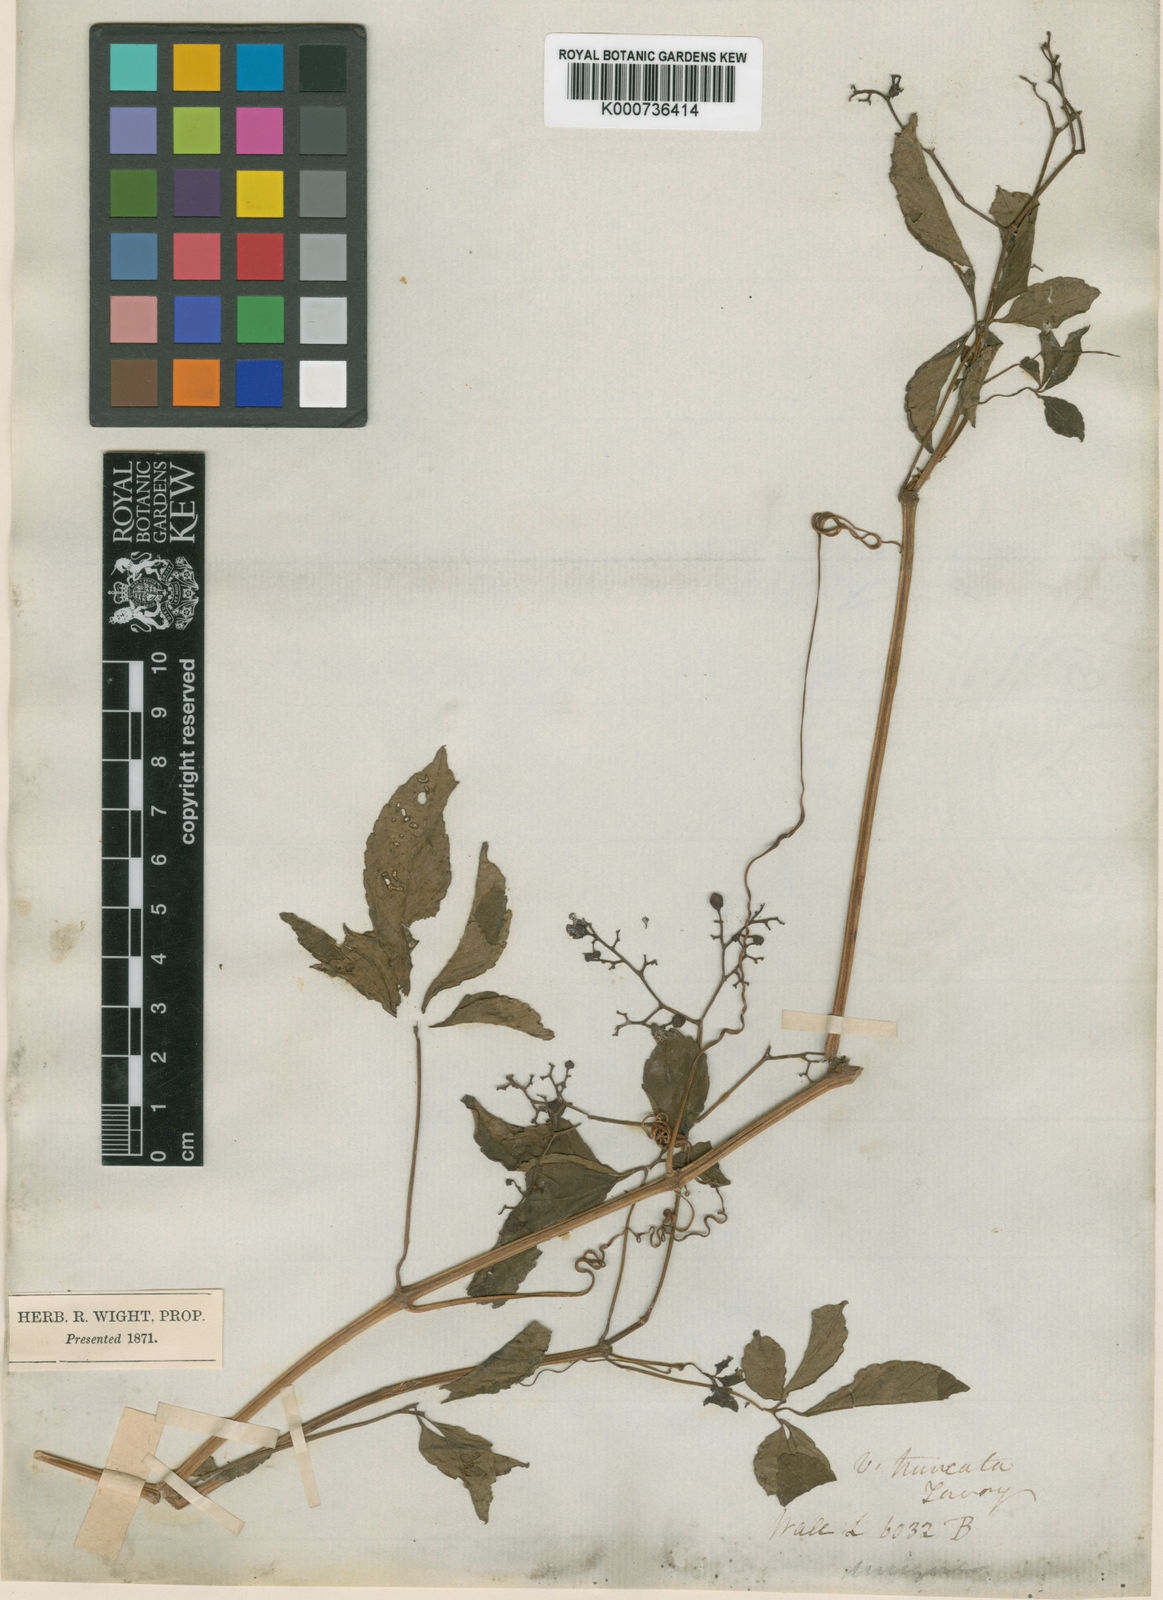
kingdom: Plantae
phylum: Tracheophyta
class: Magnoliopsida
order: Vitales
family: Vitaceae
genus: Cayratia
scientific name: Cayratia pedata
